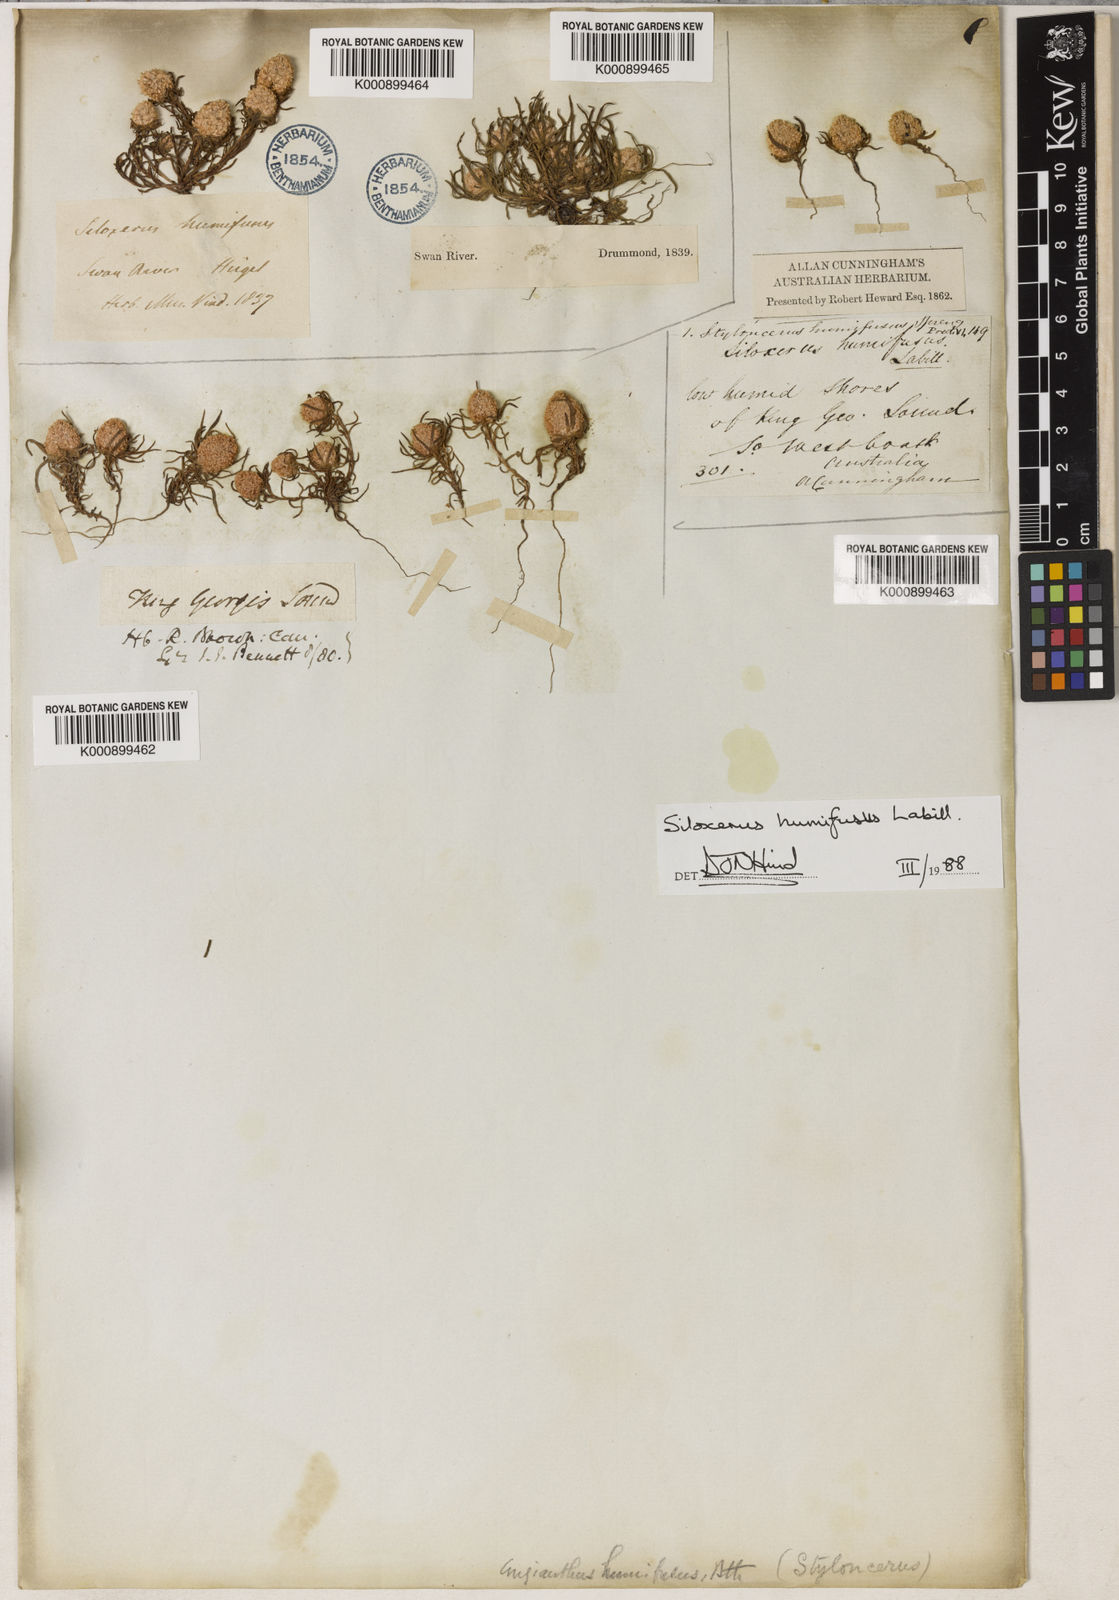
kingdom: Plantae
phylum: Tracheophyta
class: Magnoliopsida
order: Asterales
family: Asteraceae
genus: Siloxerus
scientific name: Siloxerus humifusus
